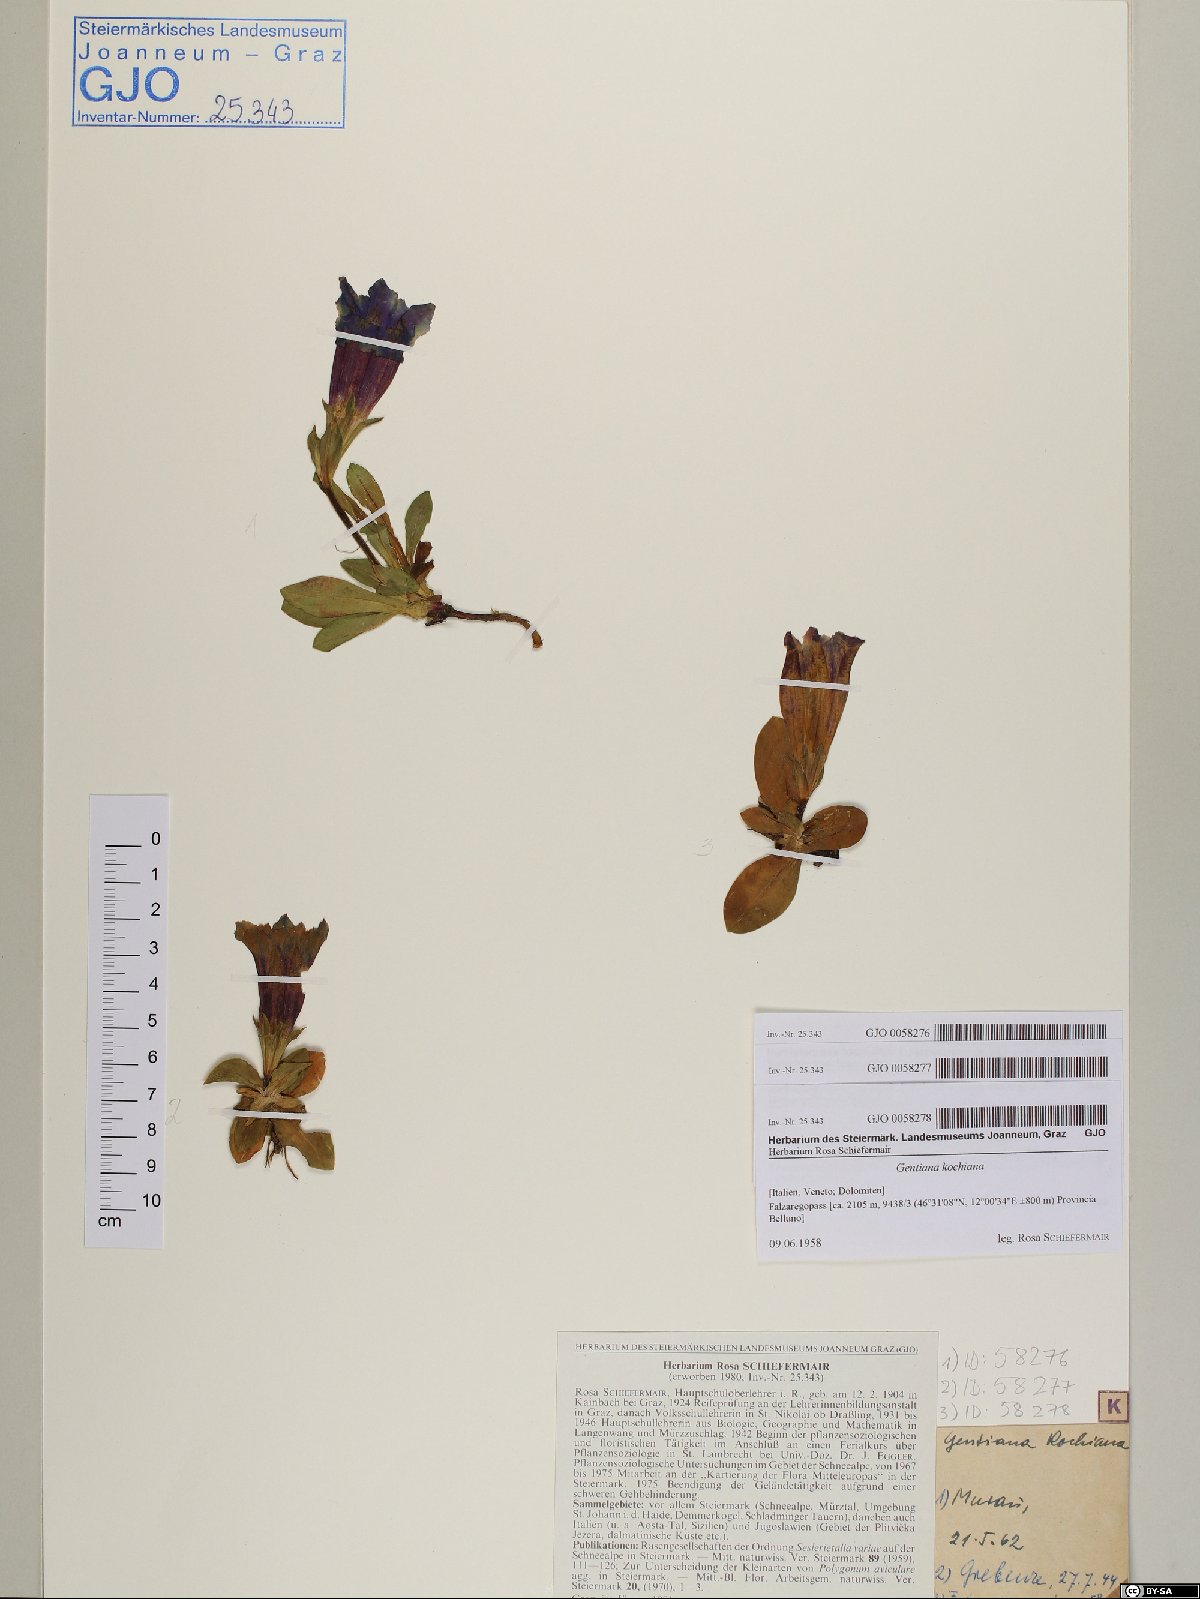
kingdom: Plantae
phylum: Tracheophyta
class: Magnoliopsida
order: Gentianales
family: Gentianaceae
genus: Gentiana
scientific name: Gentiana acaulis
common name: Trumpet gentian
